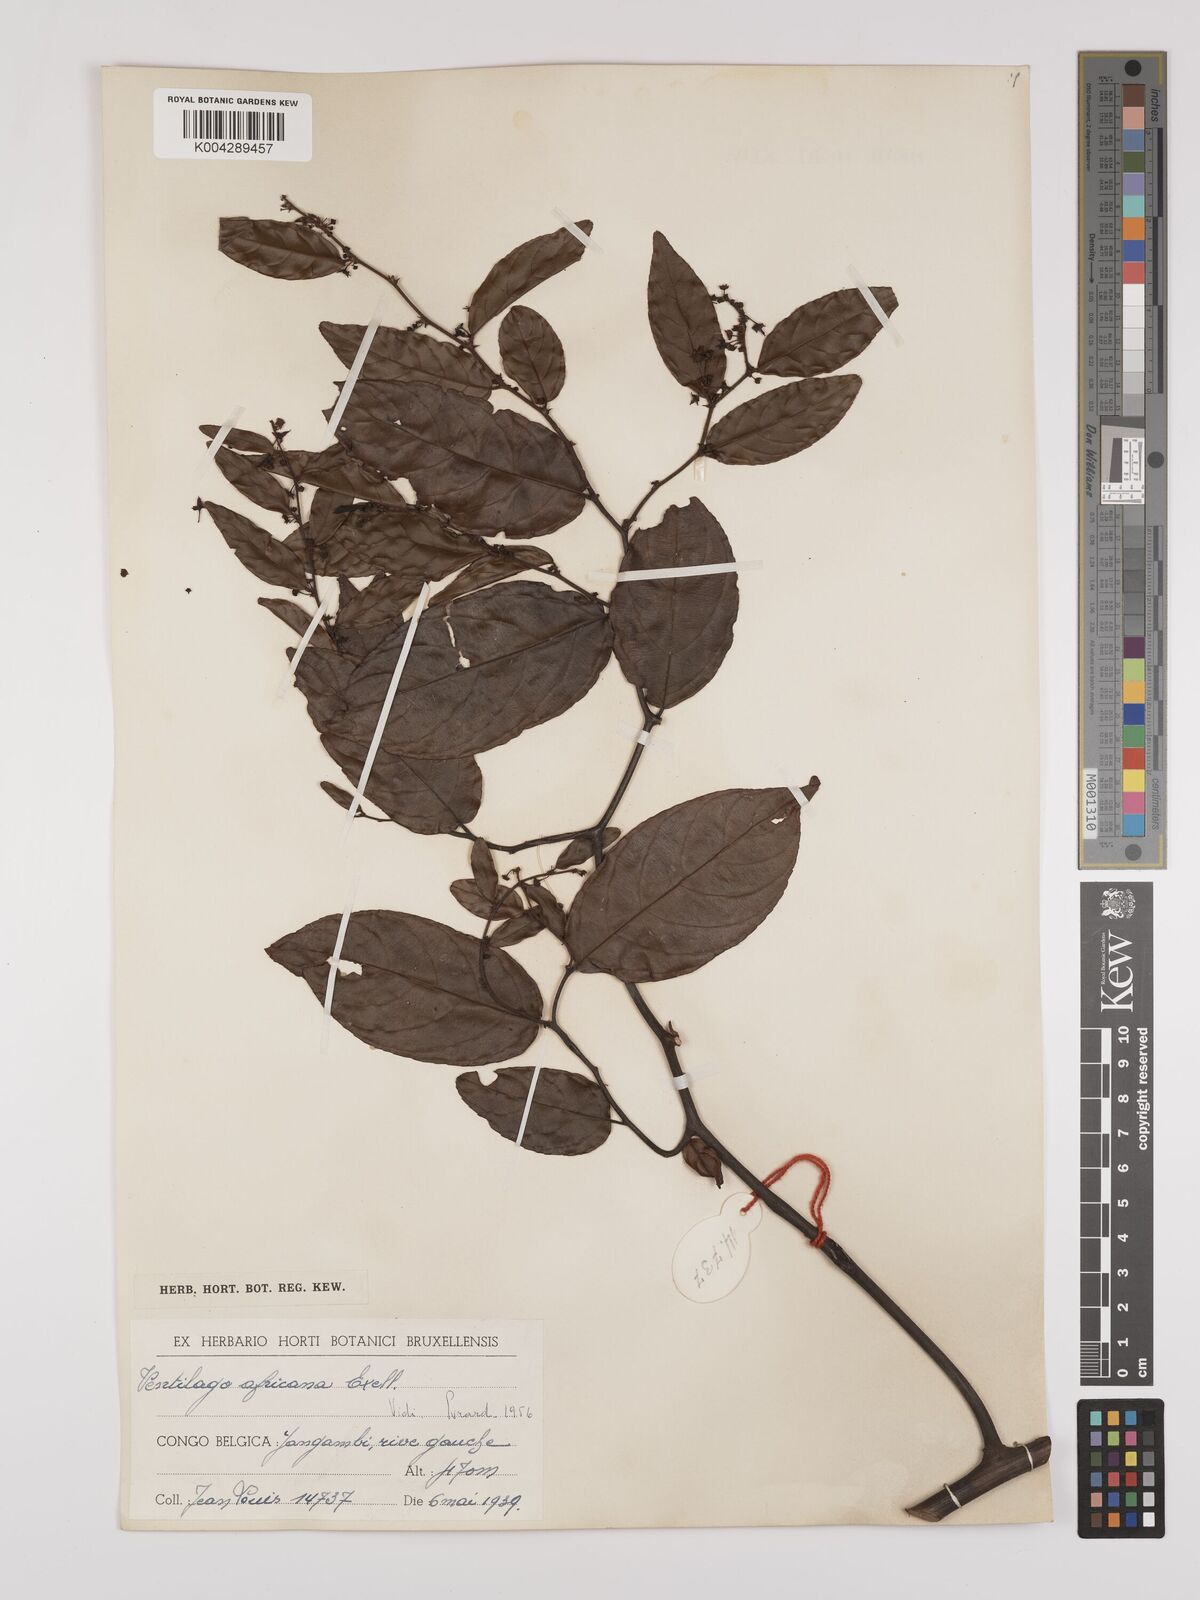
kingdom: Plantae
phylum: Tracheophyta
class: Magnoliopsida
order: Rosales
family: Rhamnaceae
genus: Ventilago
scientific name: Ventilago africana
